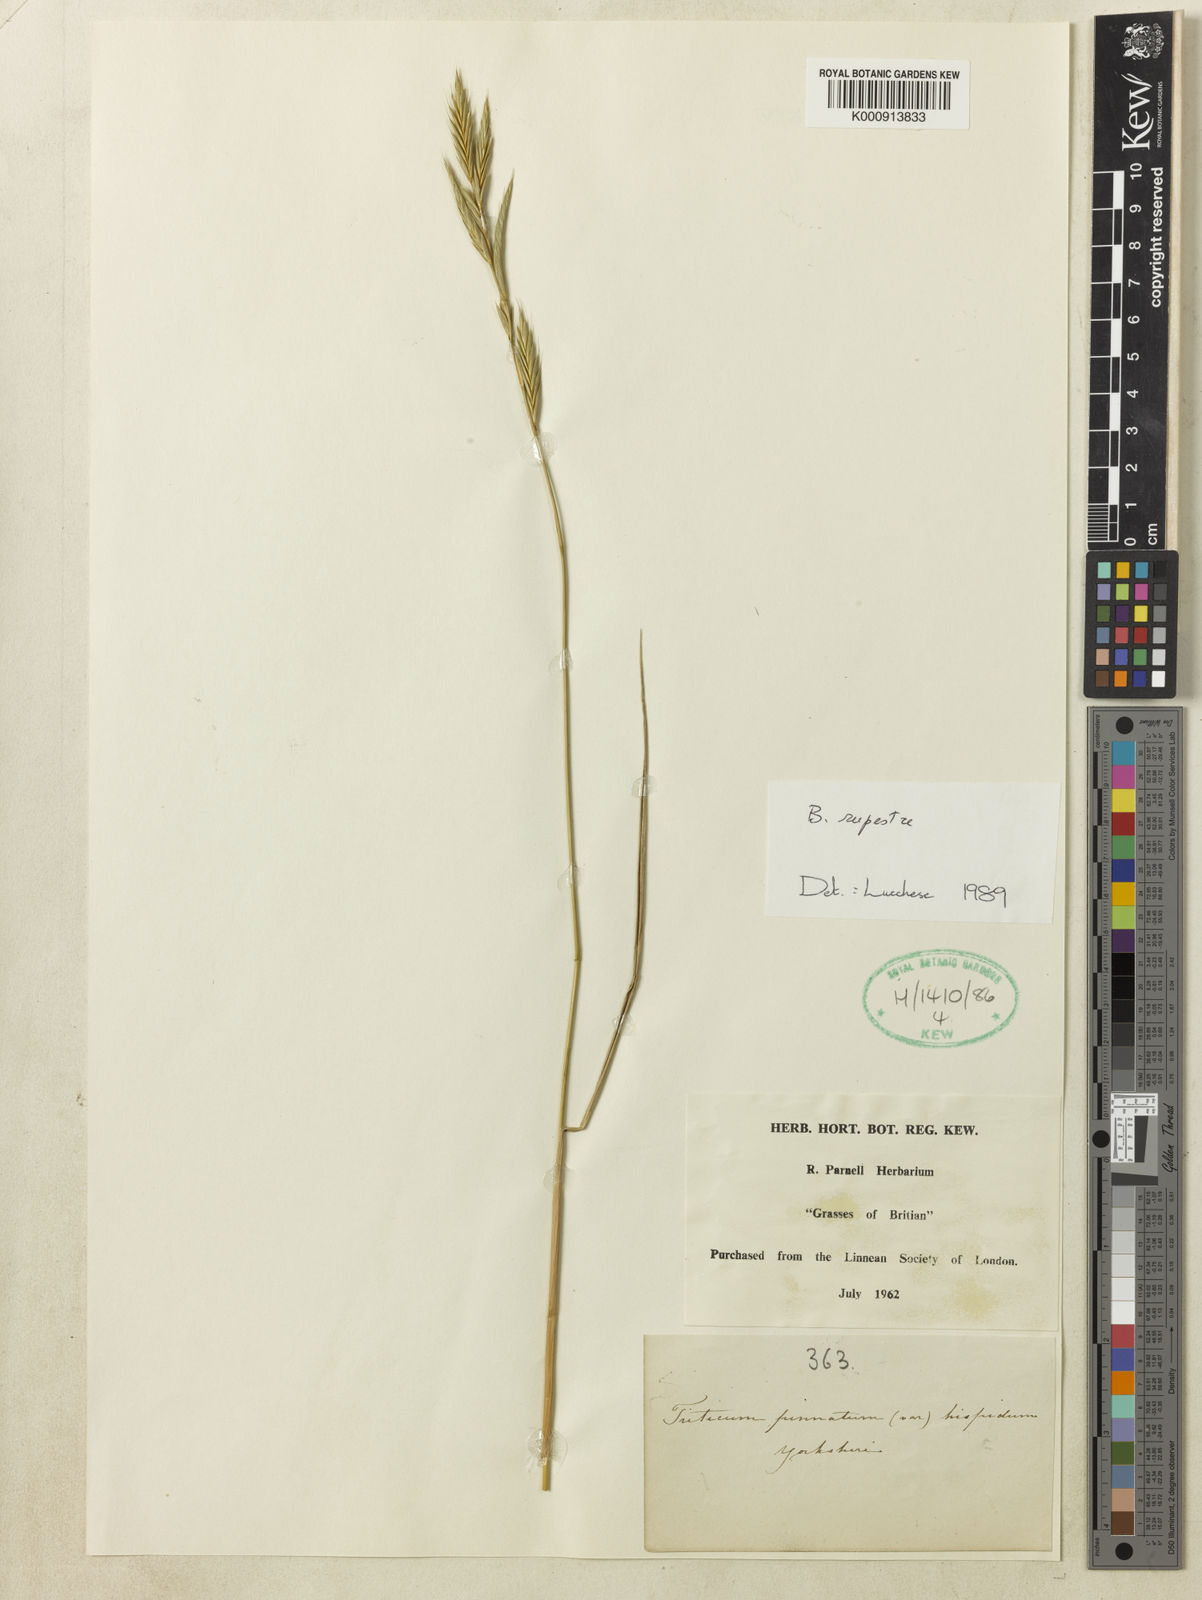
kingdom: Plantae
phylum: Tracheophyta
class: Liliopsida
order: Poales
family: Poaceae
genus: Brachypodium
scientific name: Brachypodium pinnatum
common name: Tor grass
